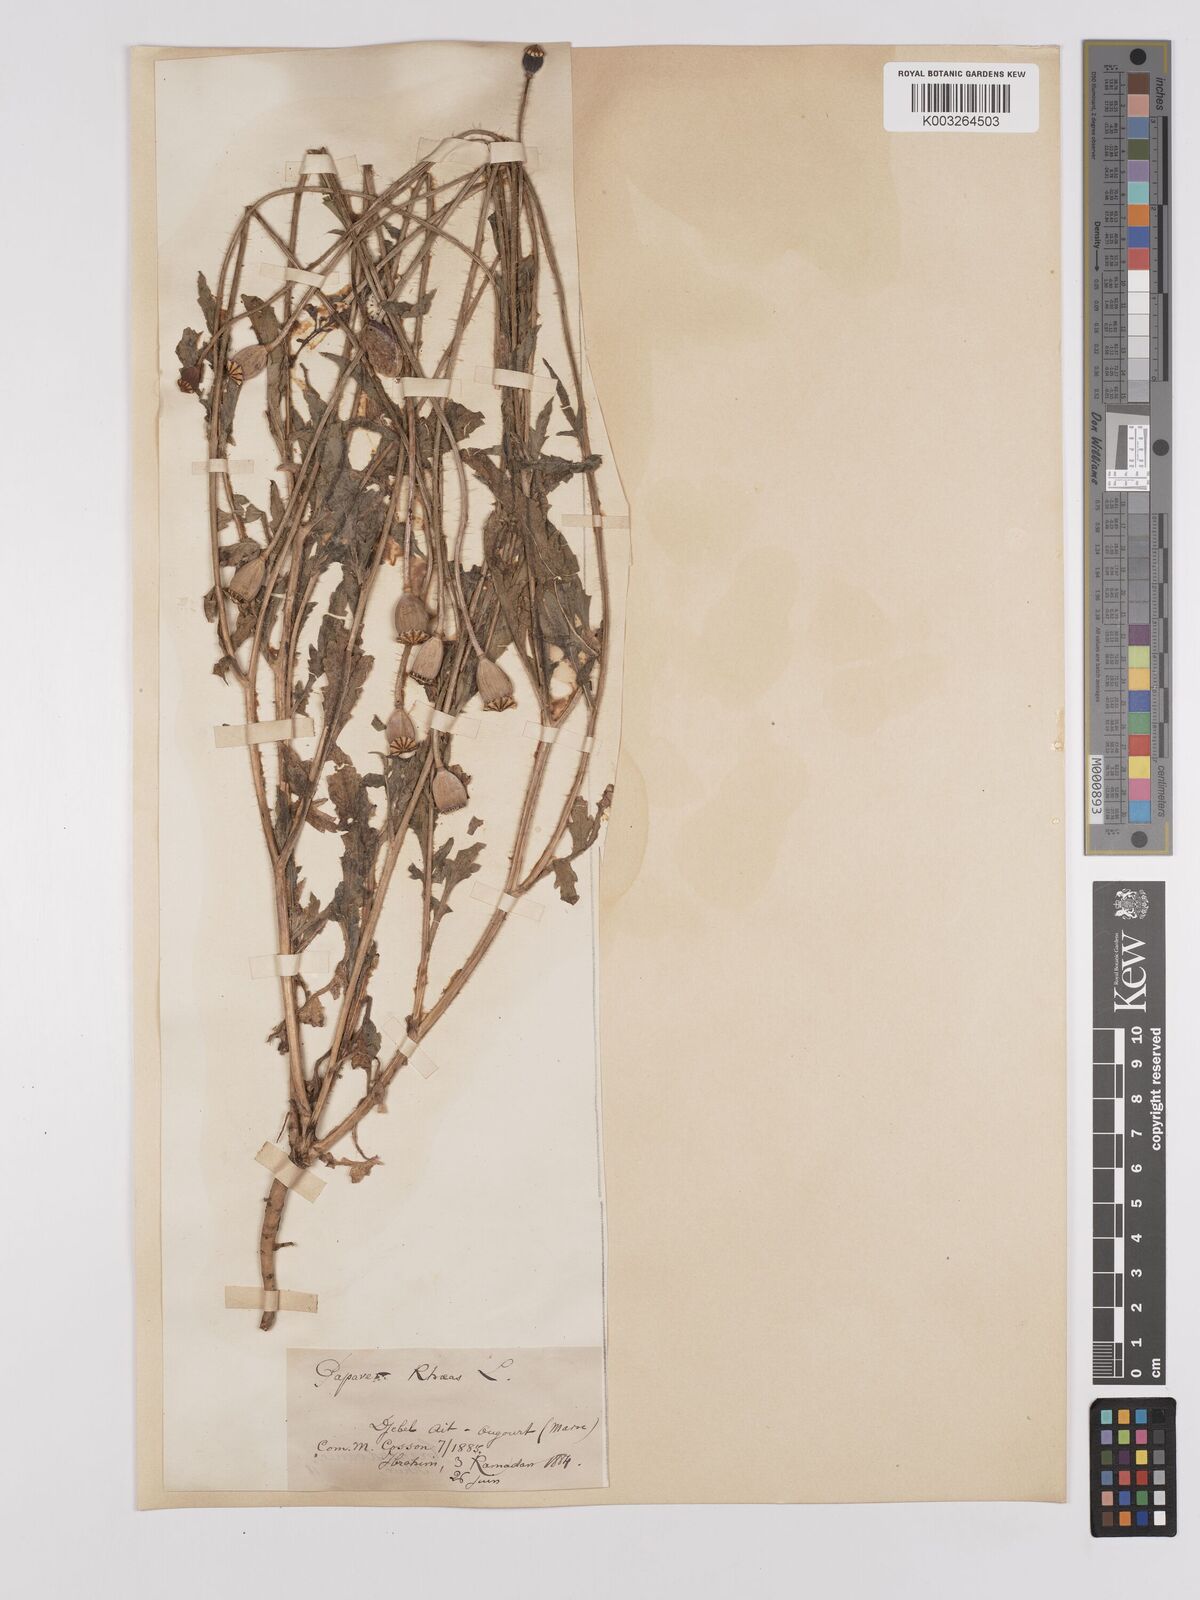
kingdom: Plantae
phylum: Tracheophyta
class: Magnoliopsida
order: Ranunculales
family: Papaveraceae
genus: Papaver
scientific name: Papaver rhoeas
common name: Corn poppy
